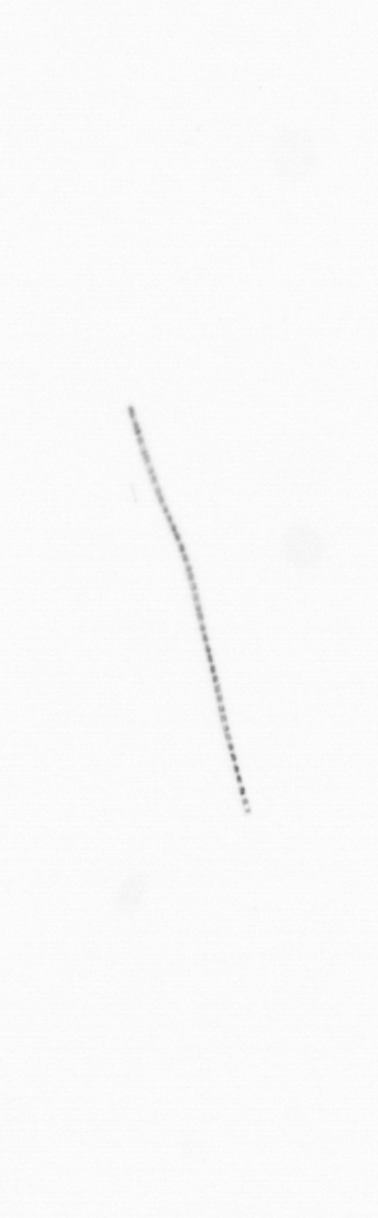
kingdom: Chromista
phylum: Ochrophyta
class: Bacillariophyceae
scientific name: Bacillariophyceae
